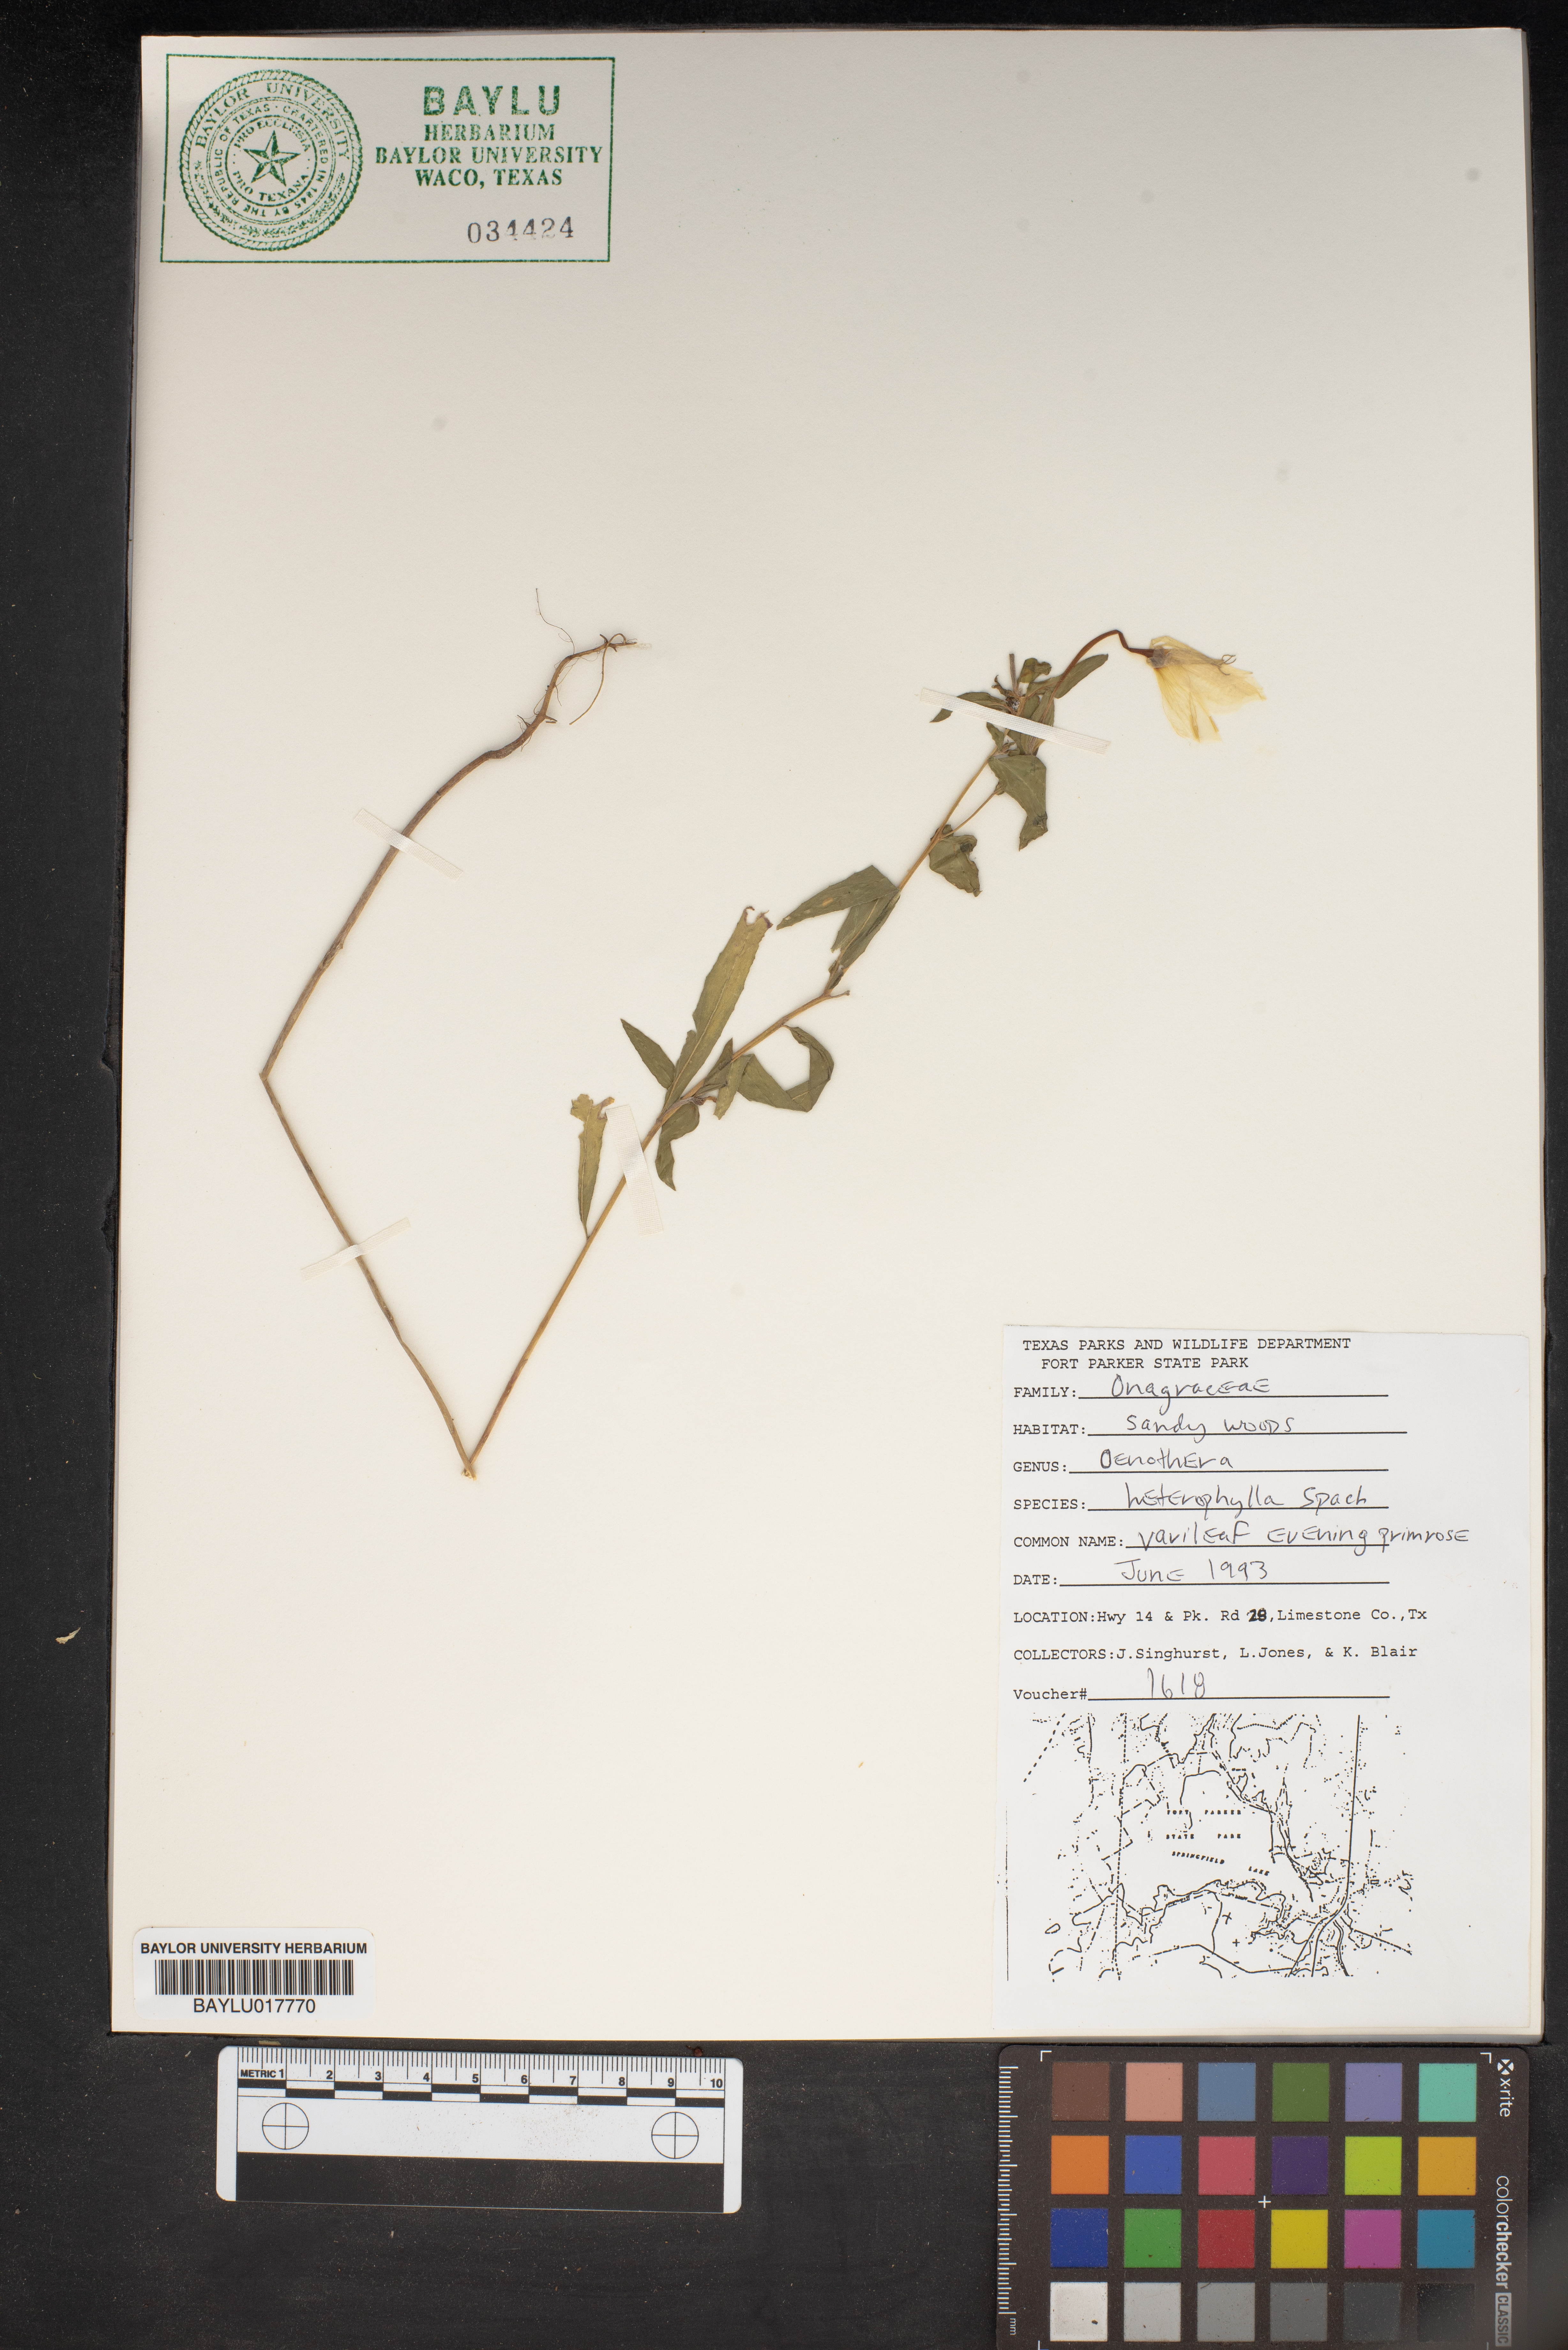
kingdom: Plantae
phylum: Tracheophyta
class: Magnoliopsida
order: Myrtales
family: Onagraceae
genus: Camissonia
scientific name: Camissonia dentata
